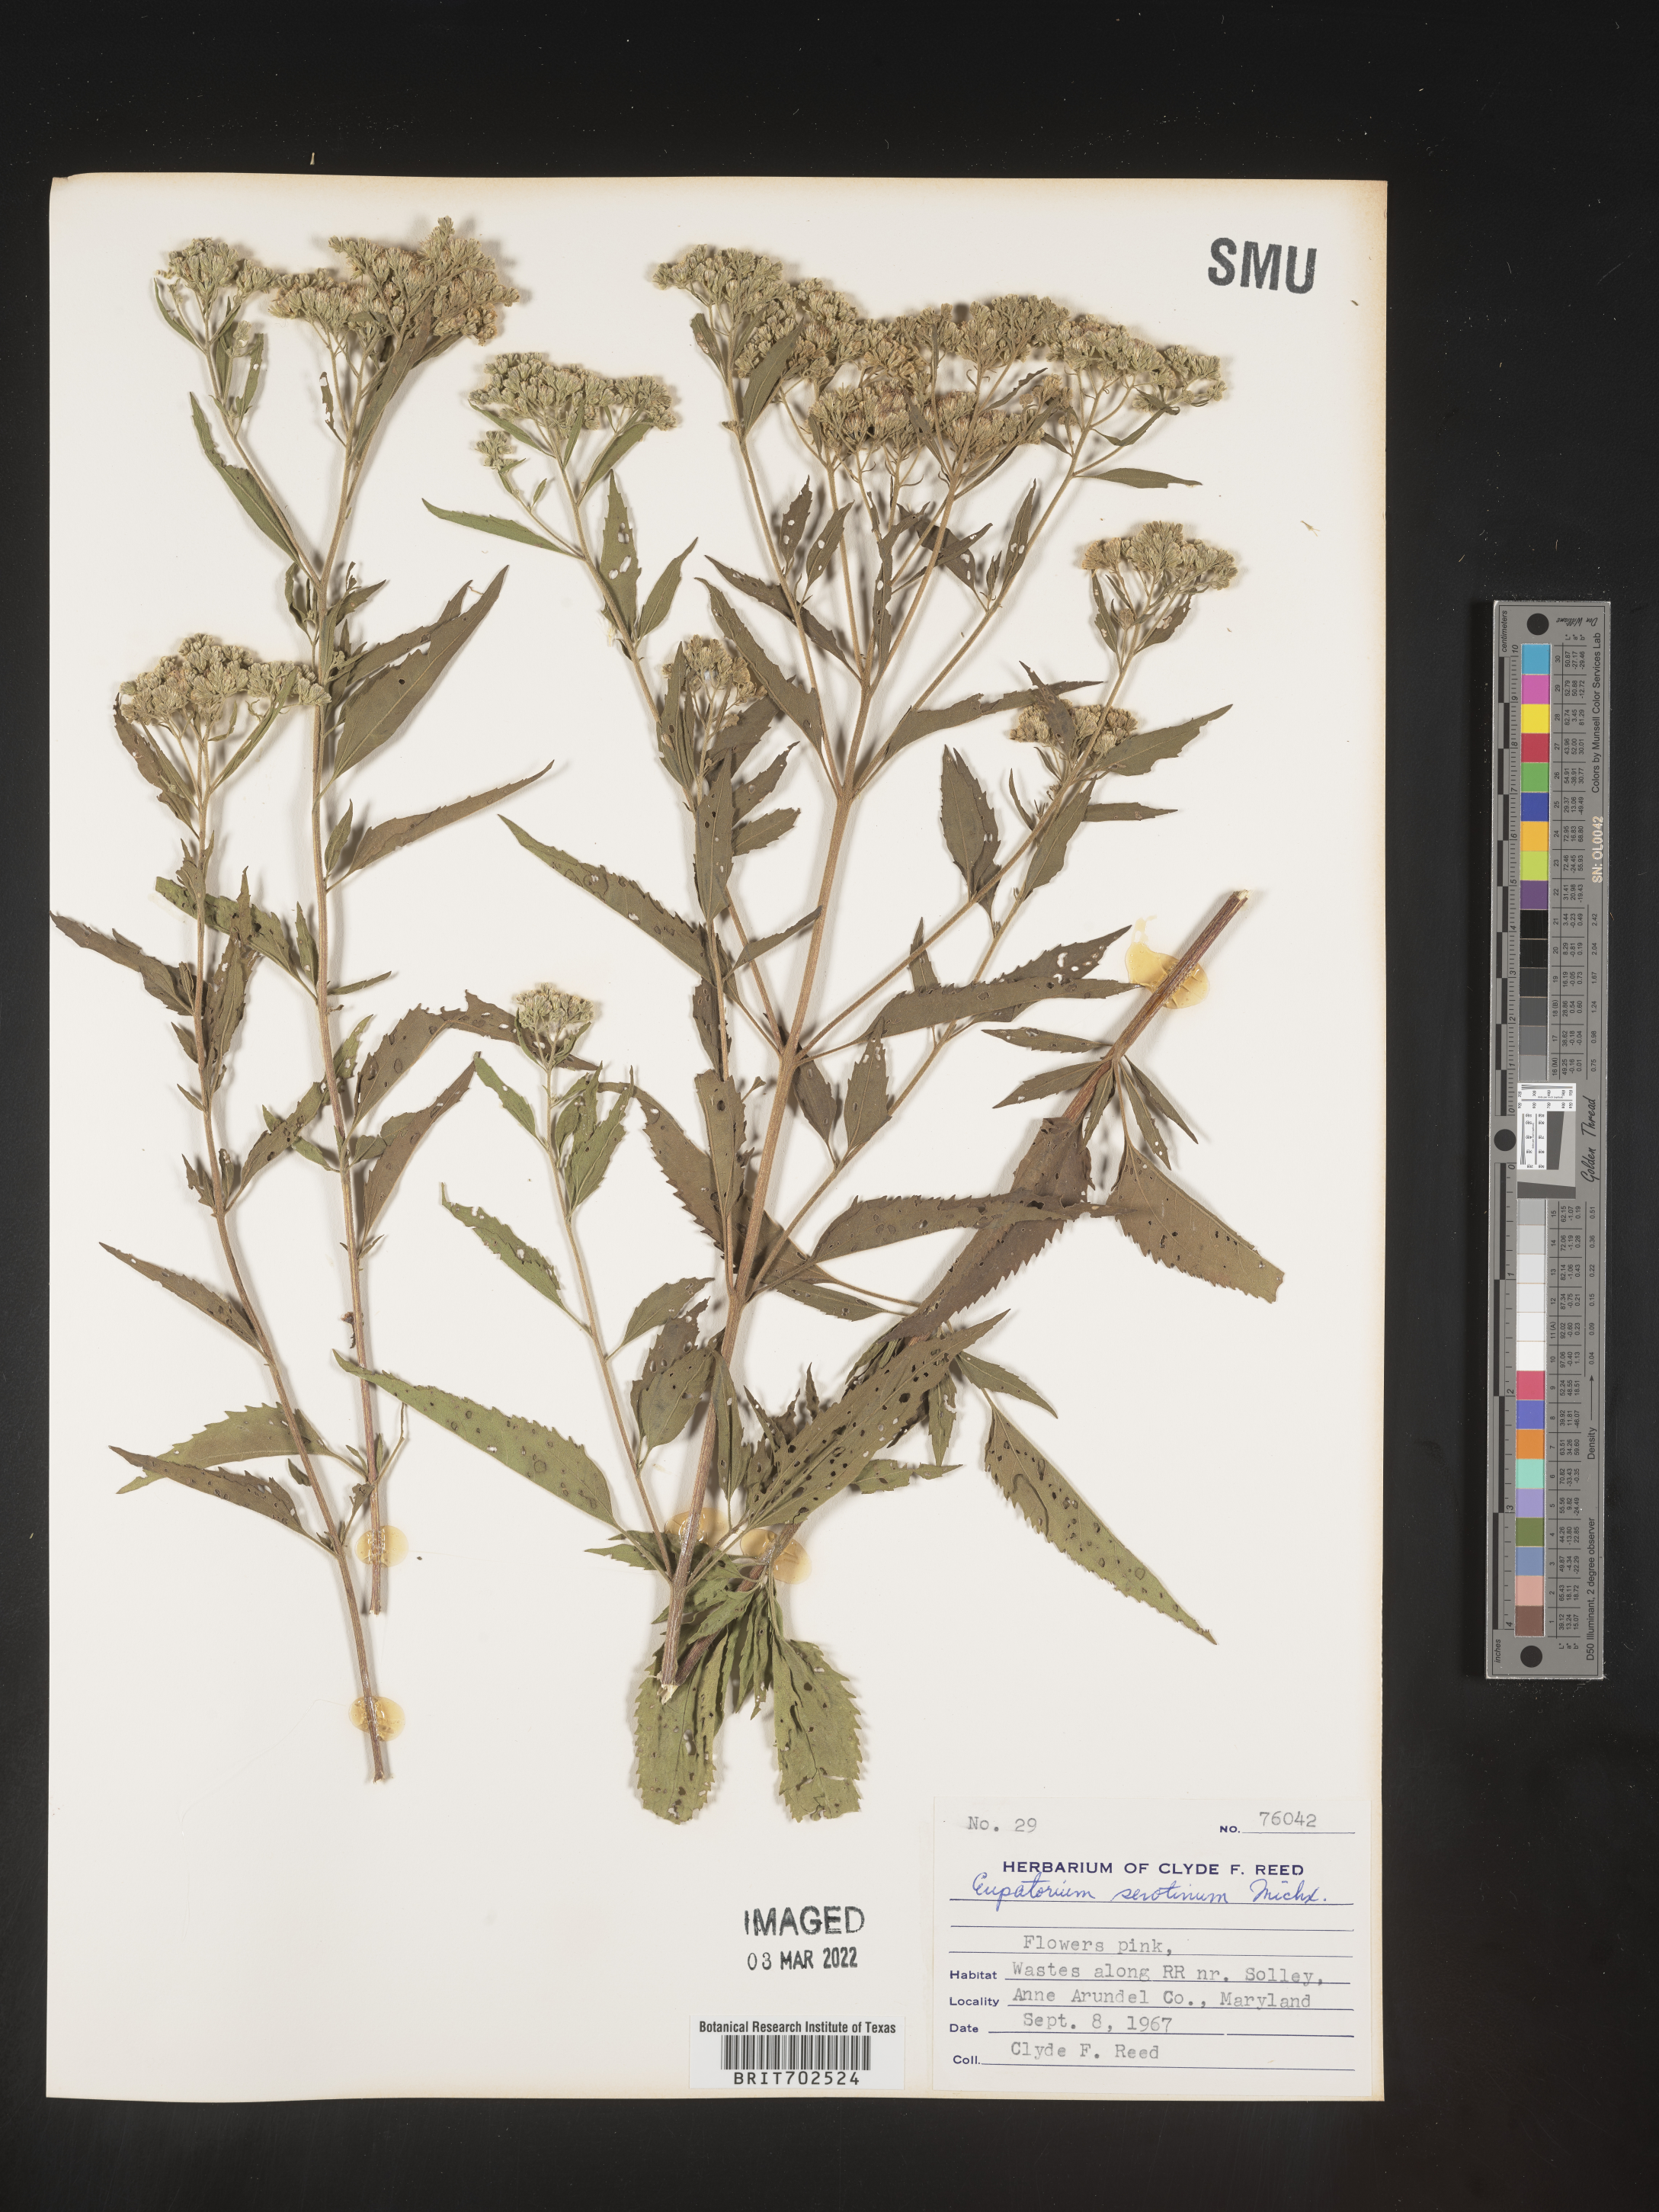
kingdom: Plantae
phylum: Tracheophyta
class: Magnoliopsida
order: Asterales
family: Asteraceae
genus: Eupatorium
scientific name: Eupatorium serotinum
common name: Late boneset
